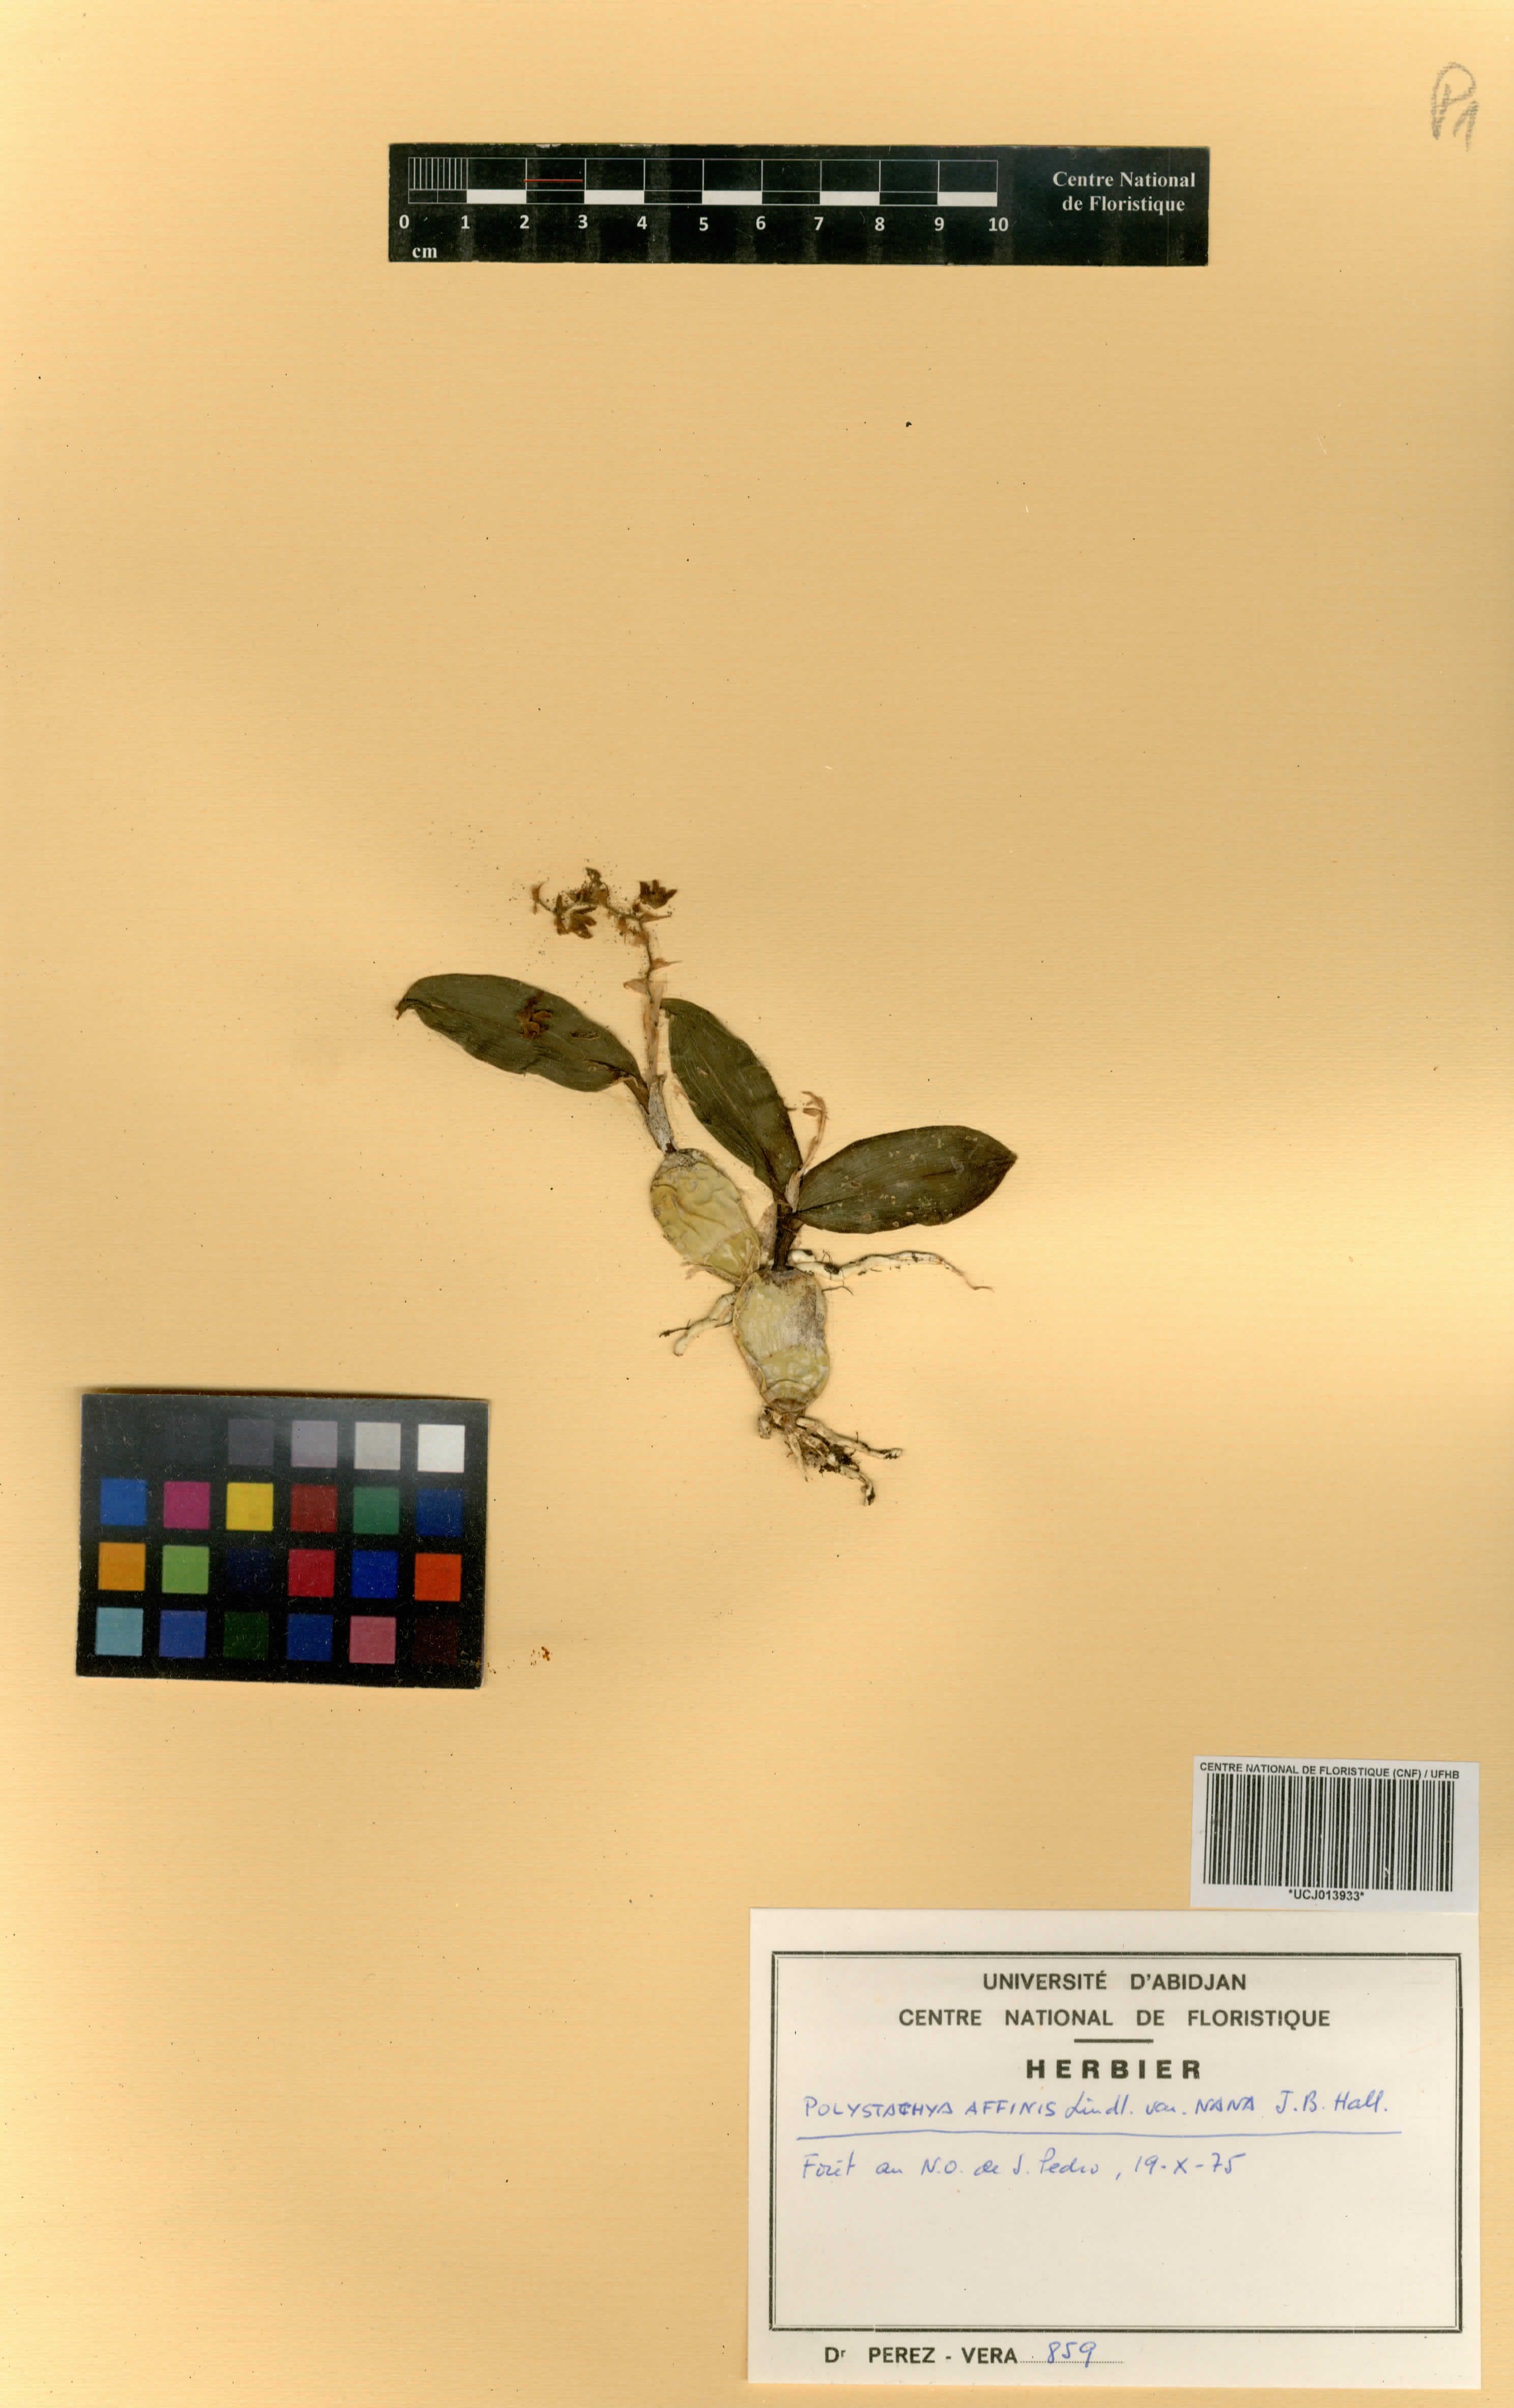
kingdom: Plantae
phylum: Tracheophyta
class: Liliopsida
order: Asparagales
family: Orchidaceae
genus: Polystachya
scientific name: Polystachya bancoensis
